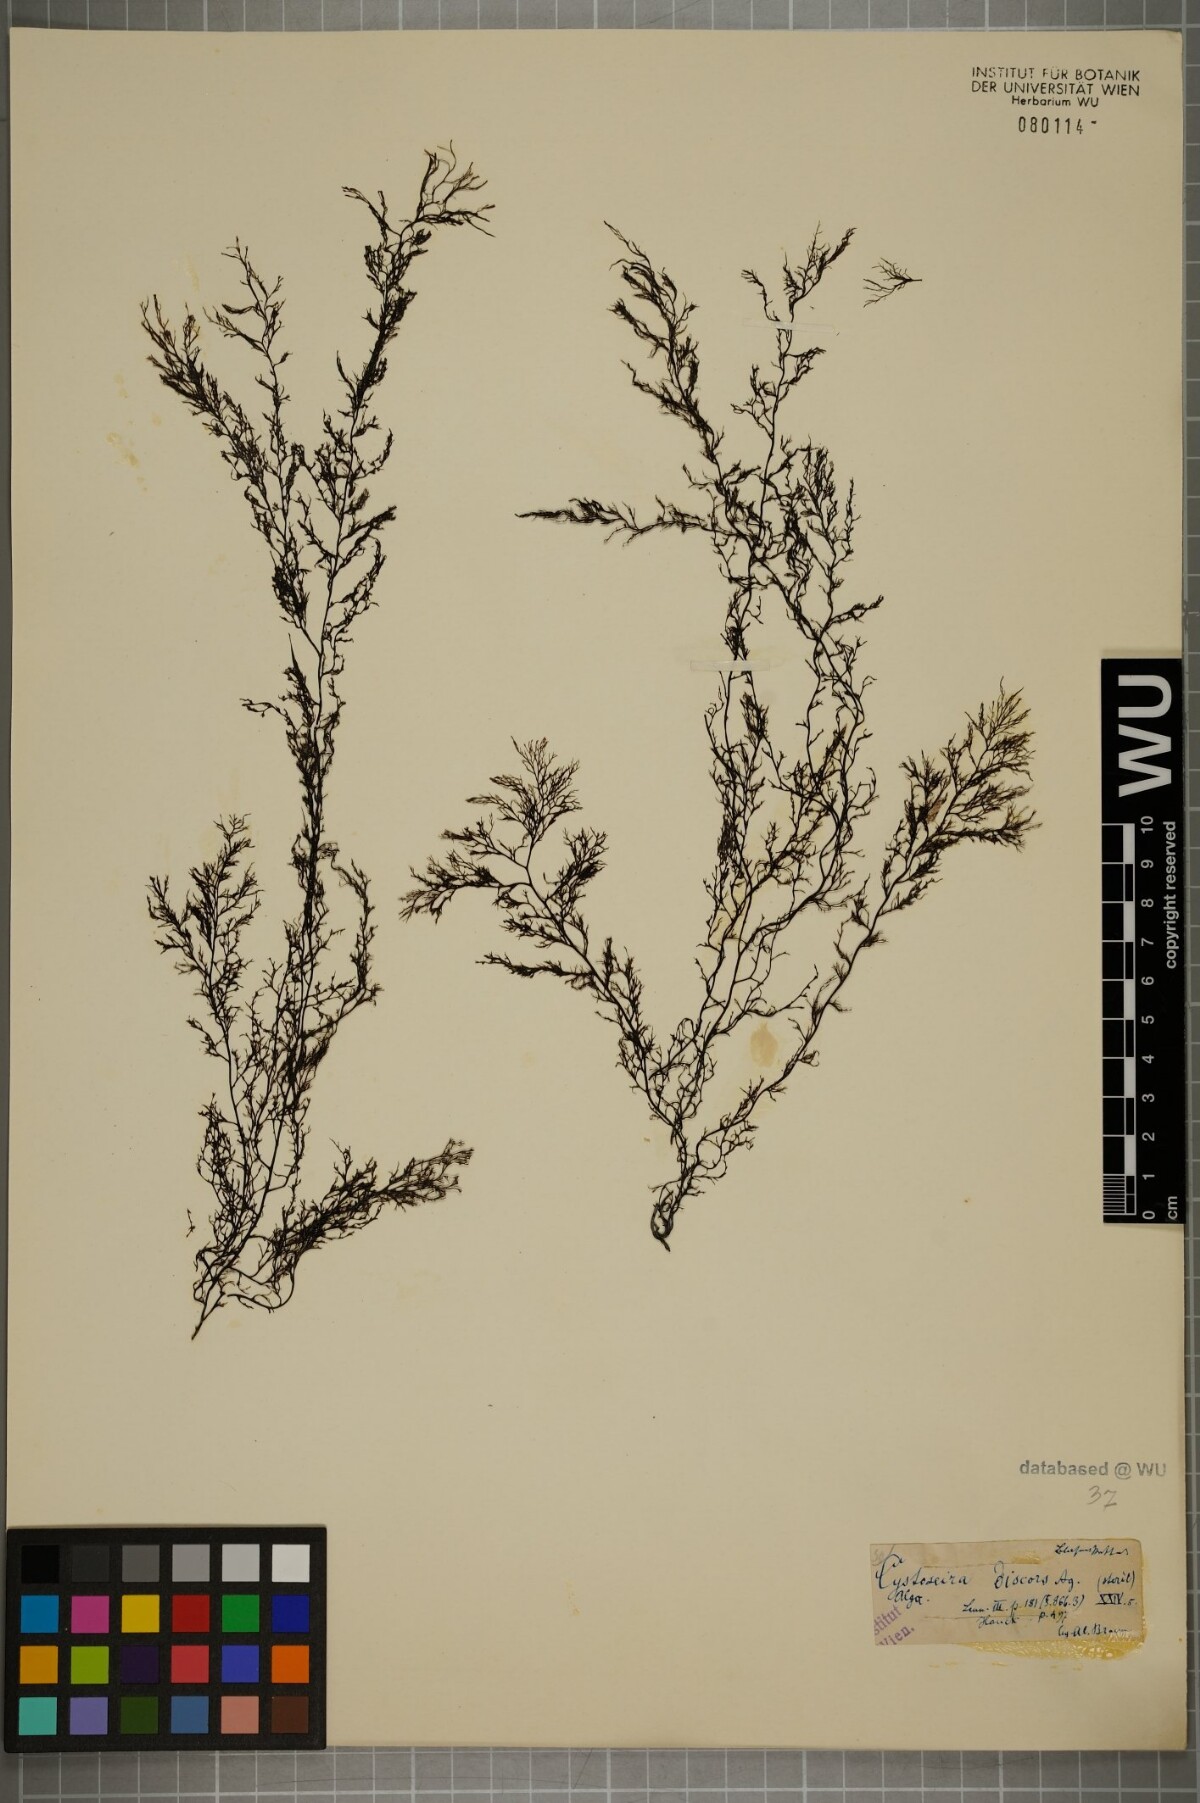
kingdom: Chromista
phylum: Ochrophyta
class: Phaeophyceae
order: Fucales
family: Sargassaceae
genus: Cystoseira
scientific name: Cystoseira foeniculacea
